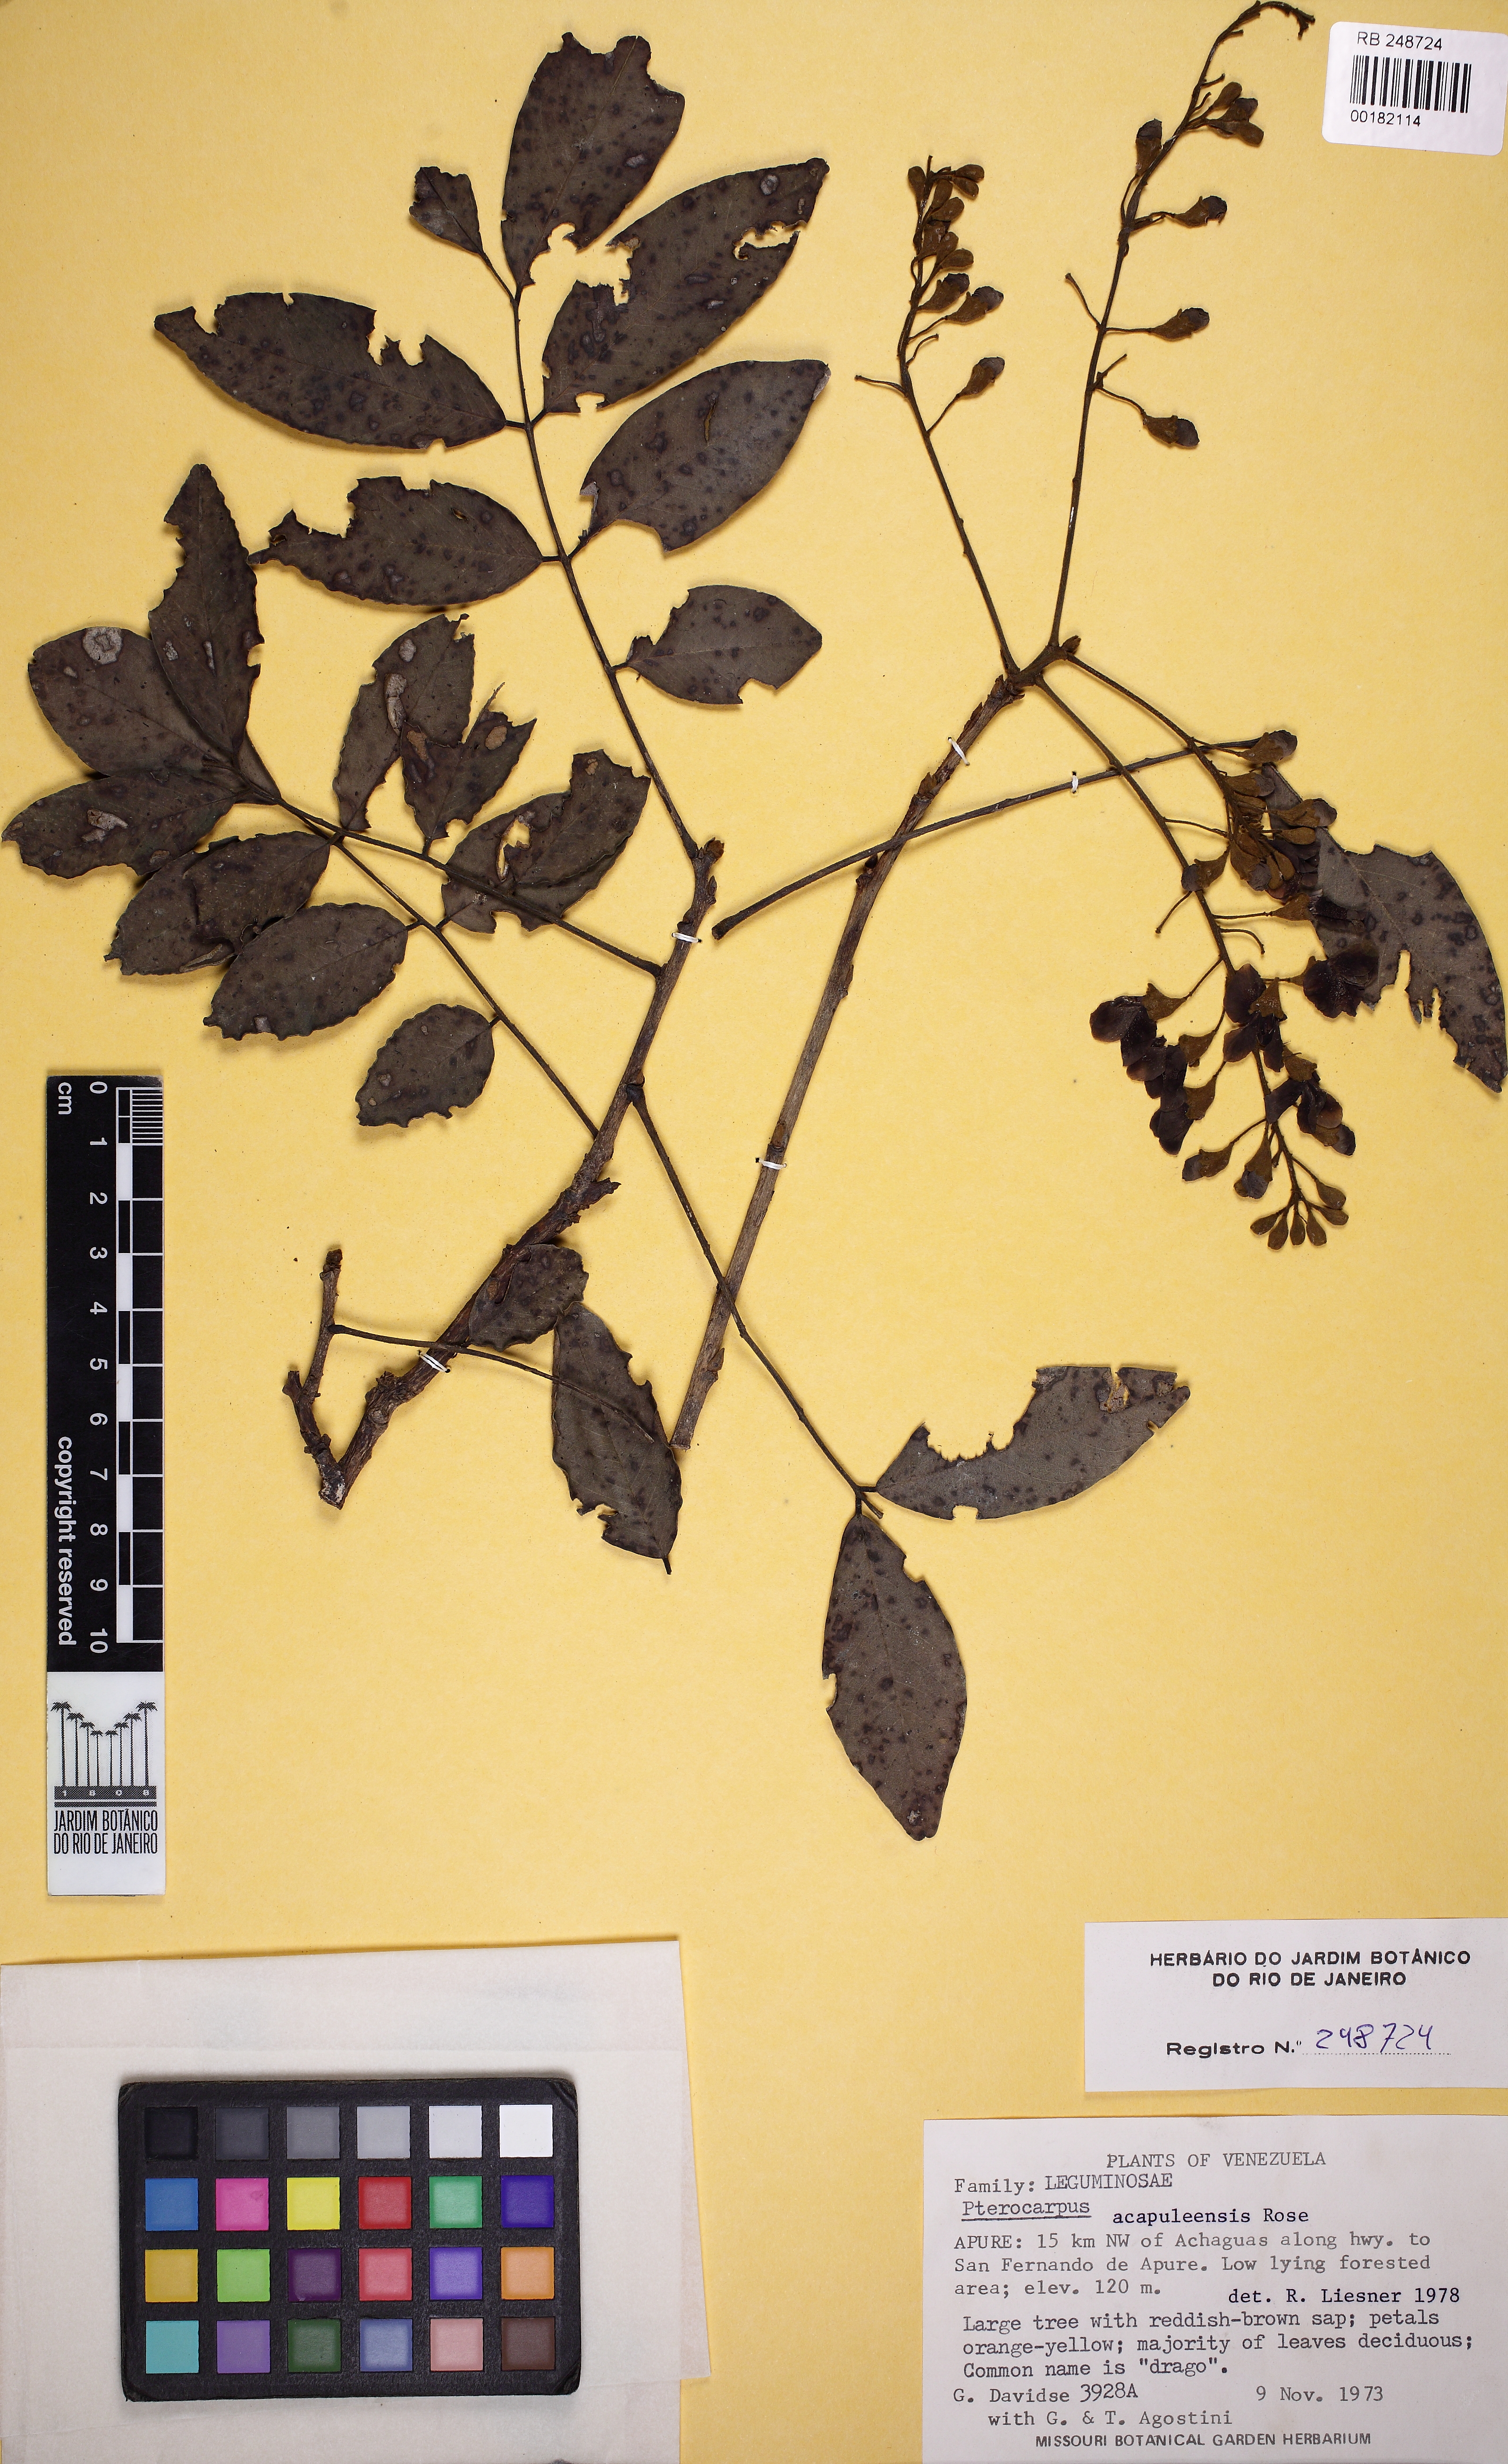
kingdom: Plantae
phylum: Tracheophyta
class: Magnoliopsida
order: Fabales
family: Fabaceae
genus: Pterocarpus
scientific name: Pterocarpus acapulcensis
